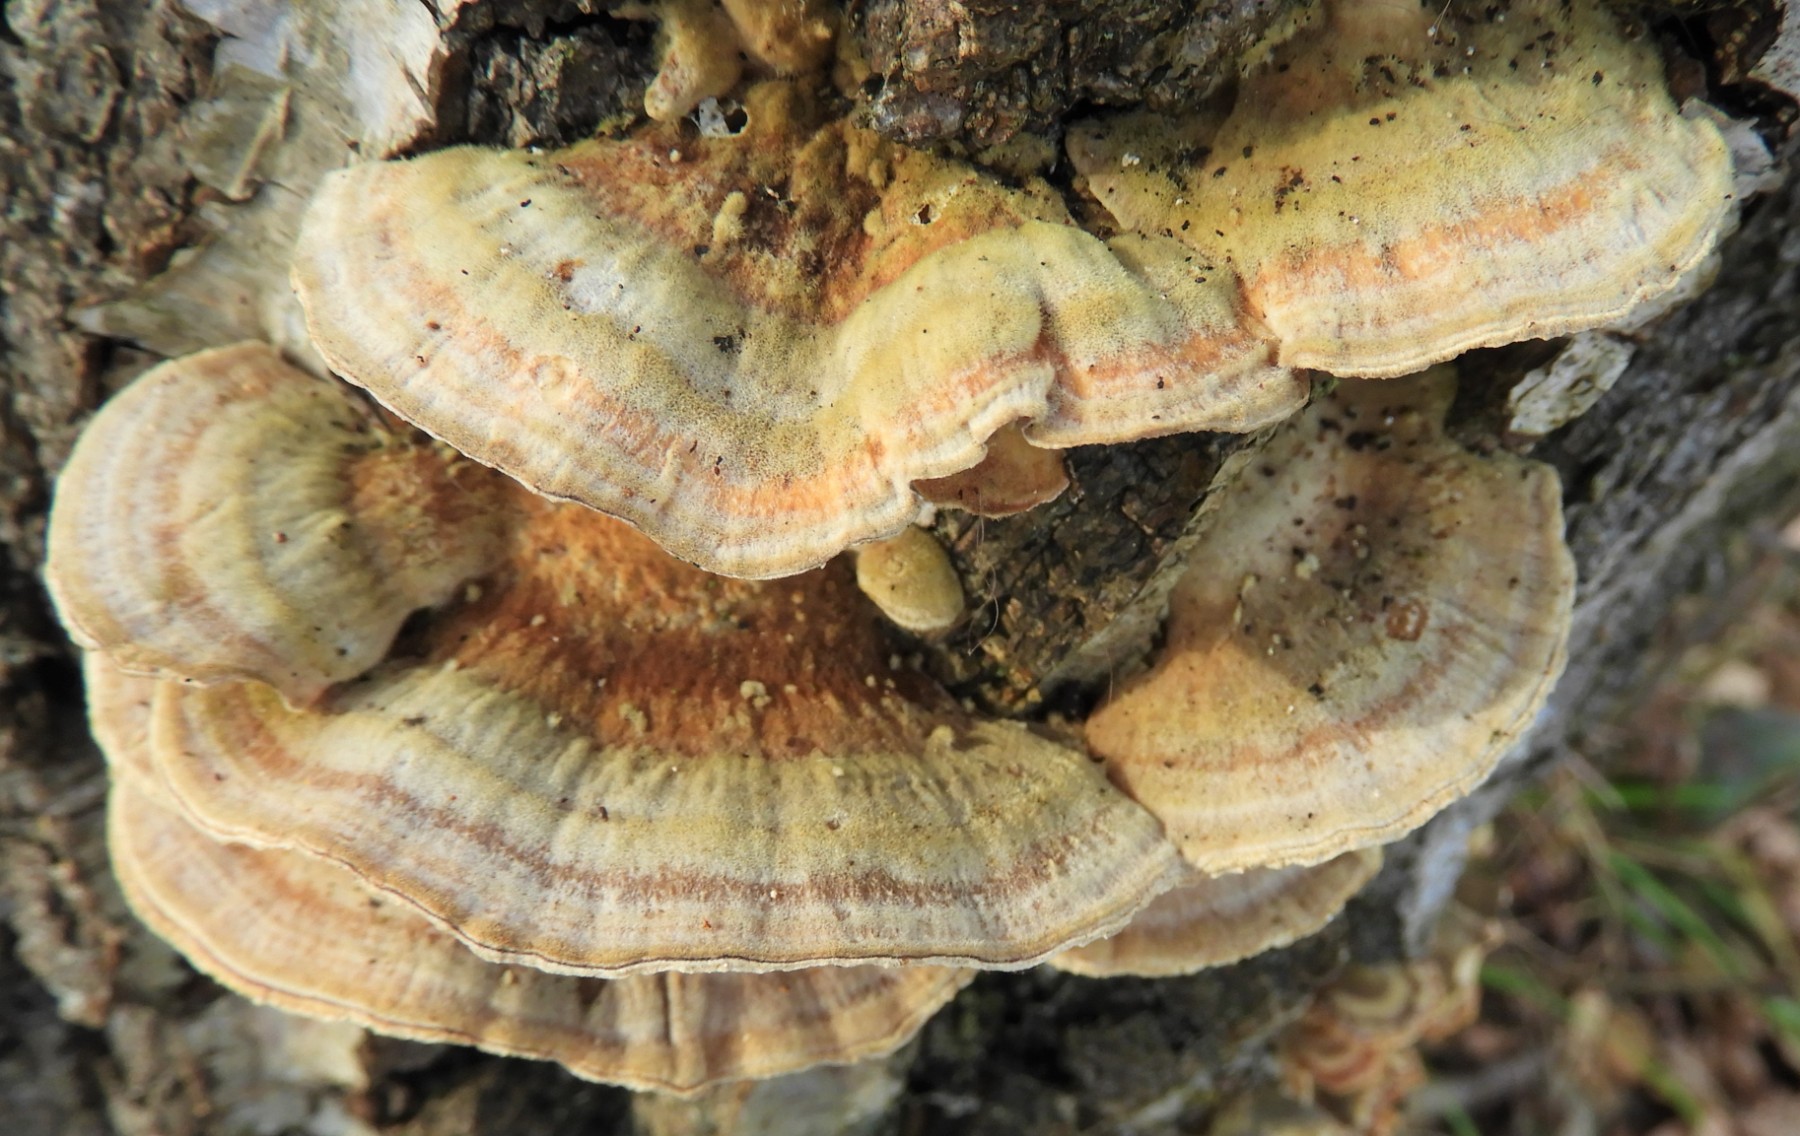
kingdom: Fungi
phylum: Basidiomycota
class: Agaricomycetes
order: Polyporales
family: Polyporaceae
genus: Trametes
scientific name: Trametes ochracea
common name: bæltet læderporesvamp
